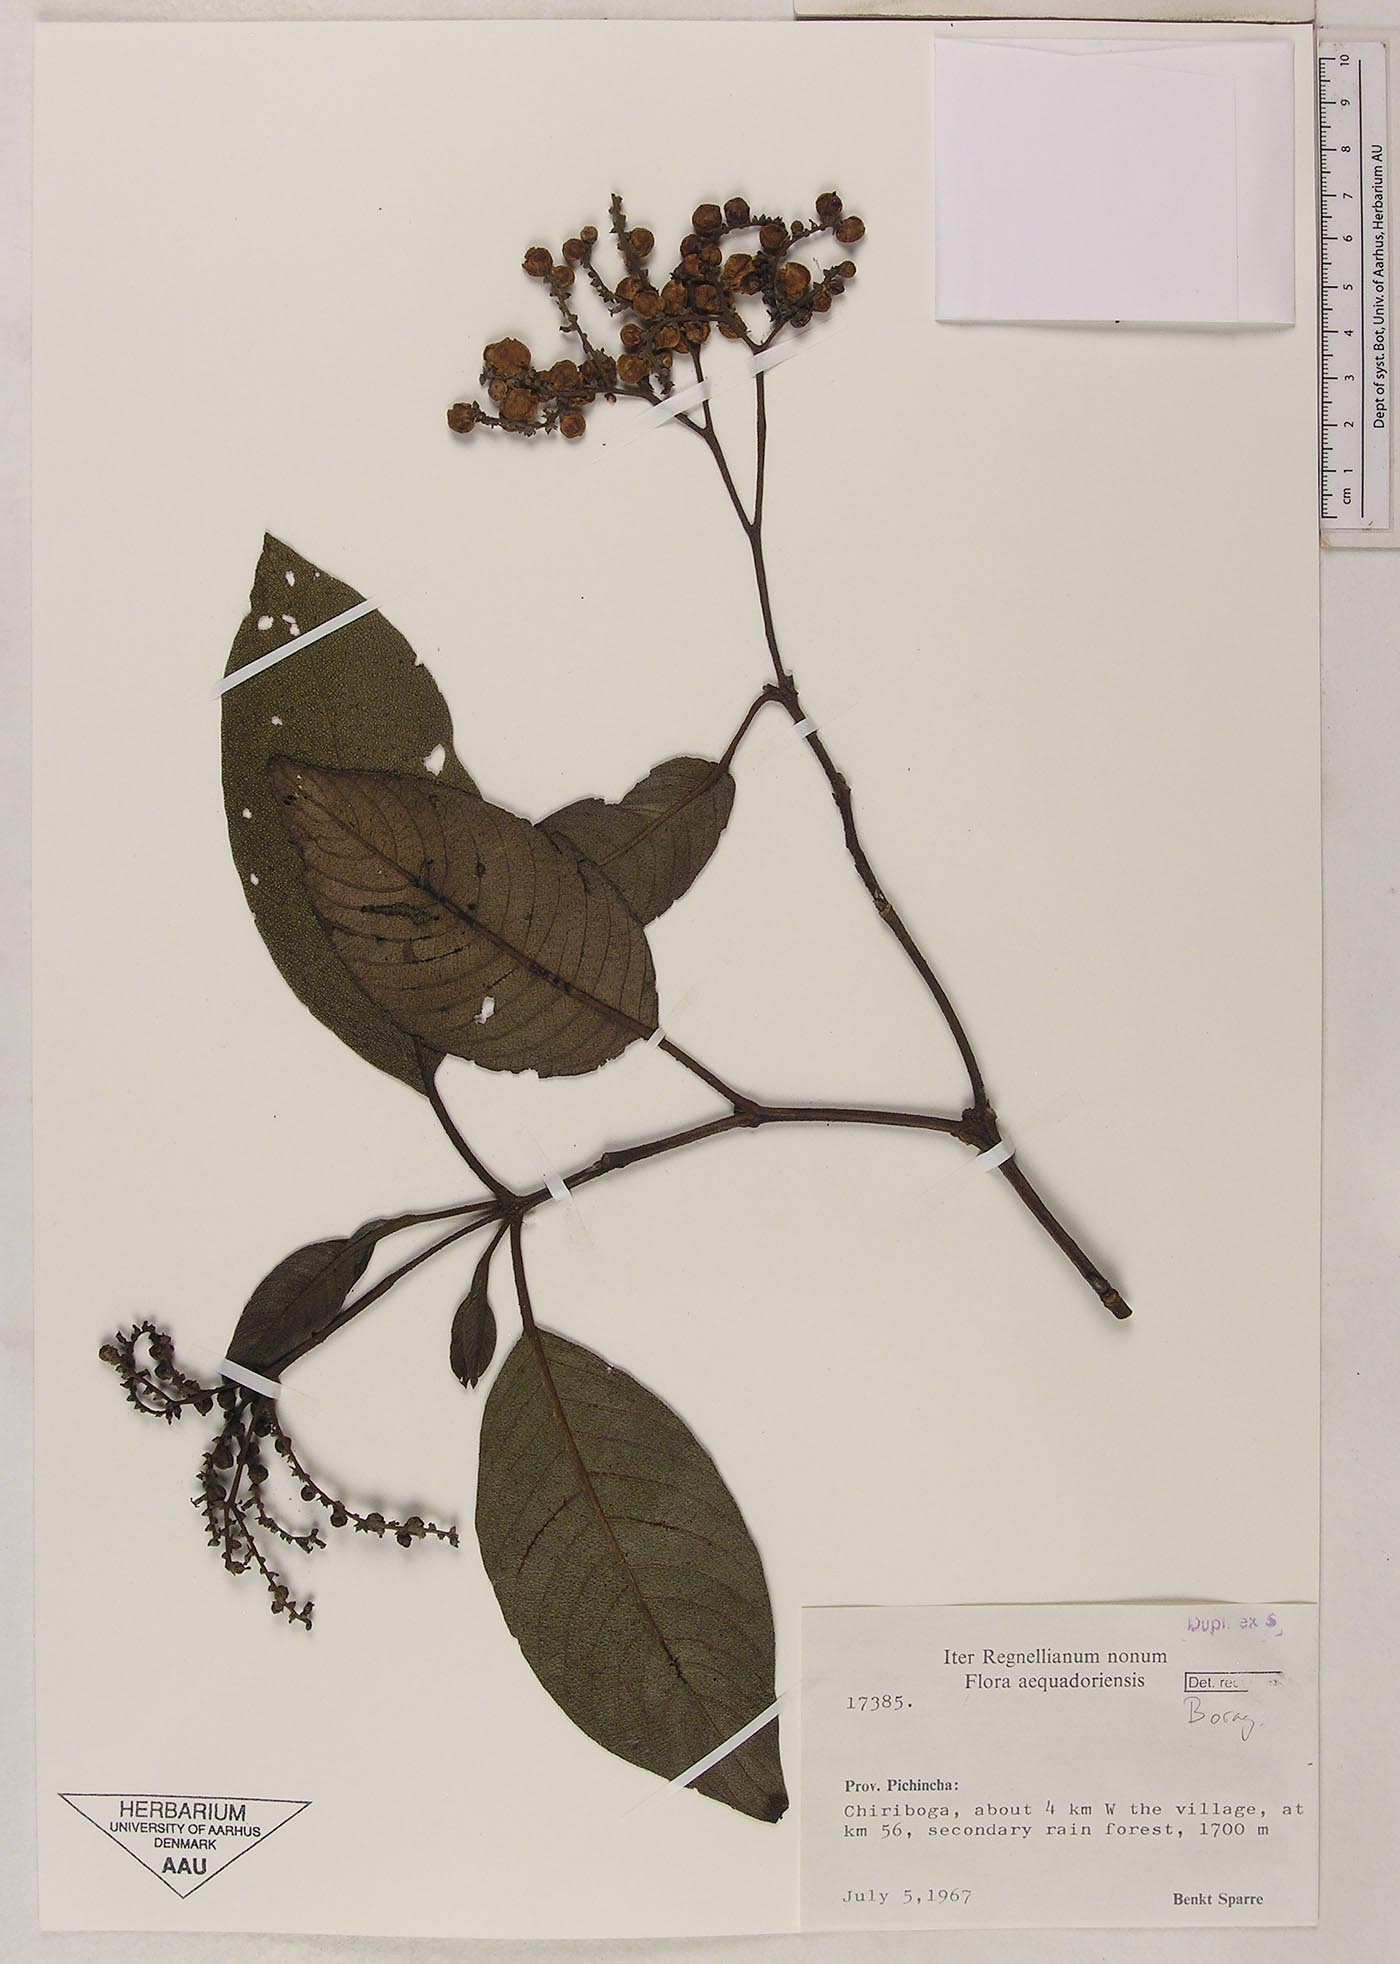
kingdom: Plantae
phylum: Tracheophyta
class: Magnoliopsida
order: Boraginales
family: Cordiaceae
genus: Varronia
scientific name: Varronia spinescens
